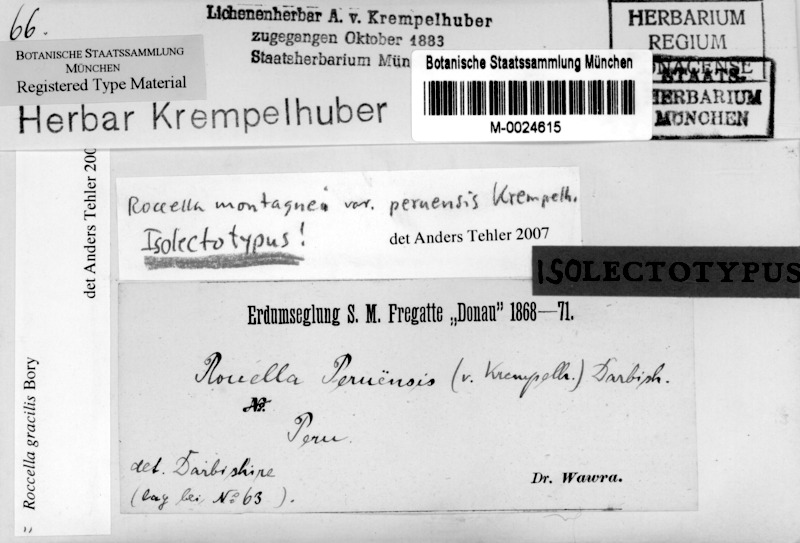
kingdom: Fungi
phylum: Ascomycota
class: Arthoniomycetes
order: Arthoniales
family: Roccellaceae
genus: Roccella
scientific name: Roccella gracilis
